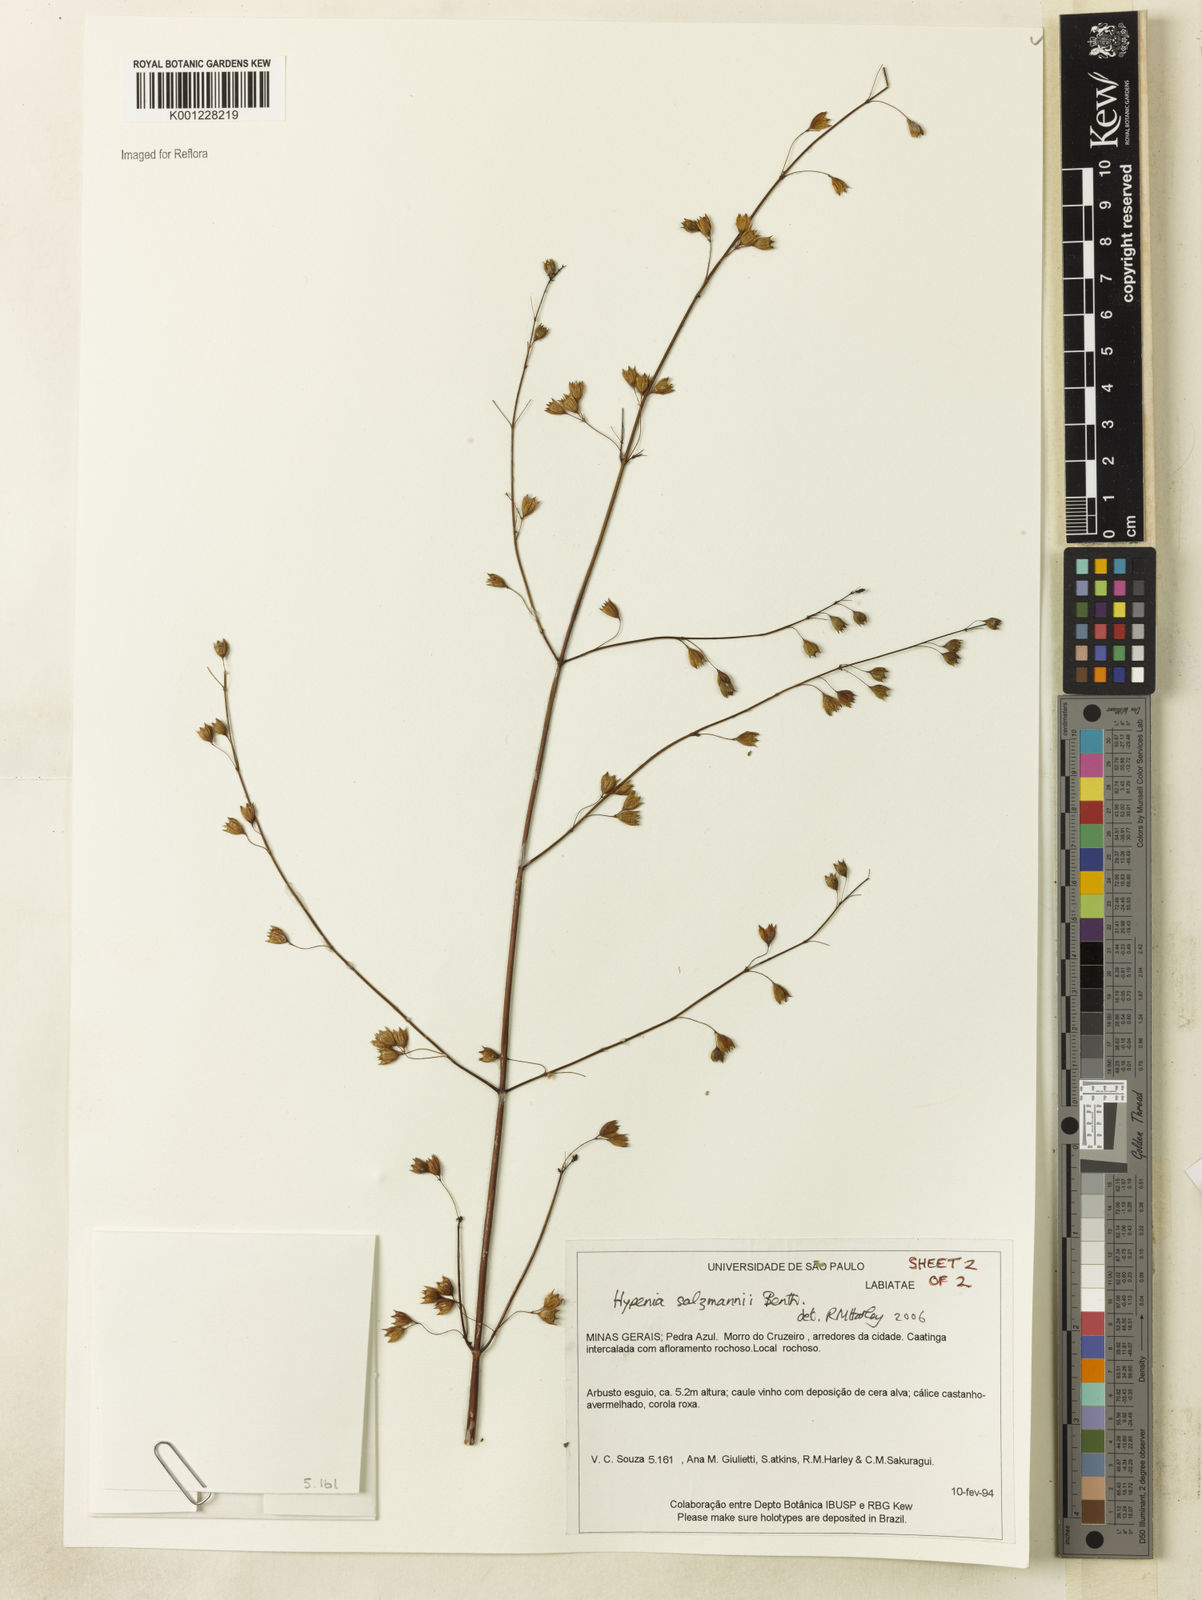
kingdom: Plantae
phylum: Tracheophyta
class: Magnoliopsida
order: Lamiales
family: Lamiaceae
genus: Hypenia
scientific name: Hypenia salzmannii
